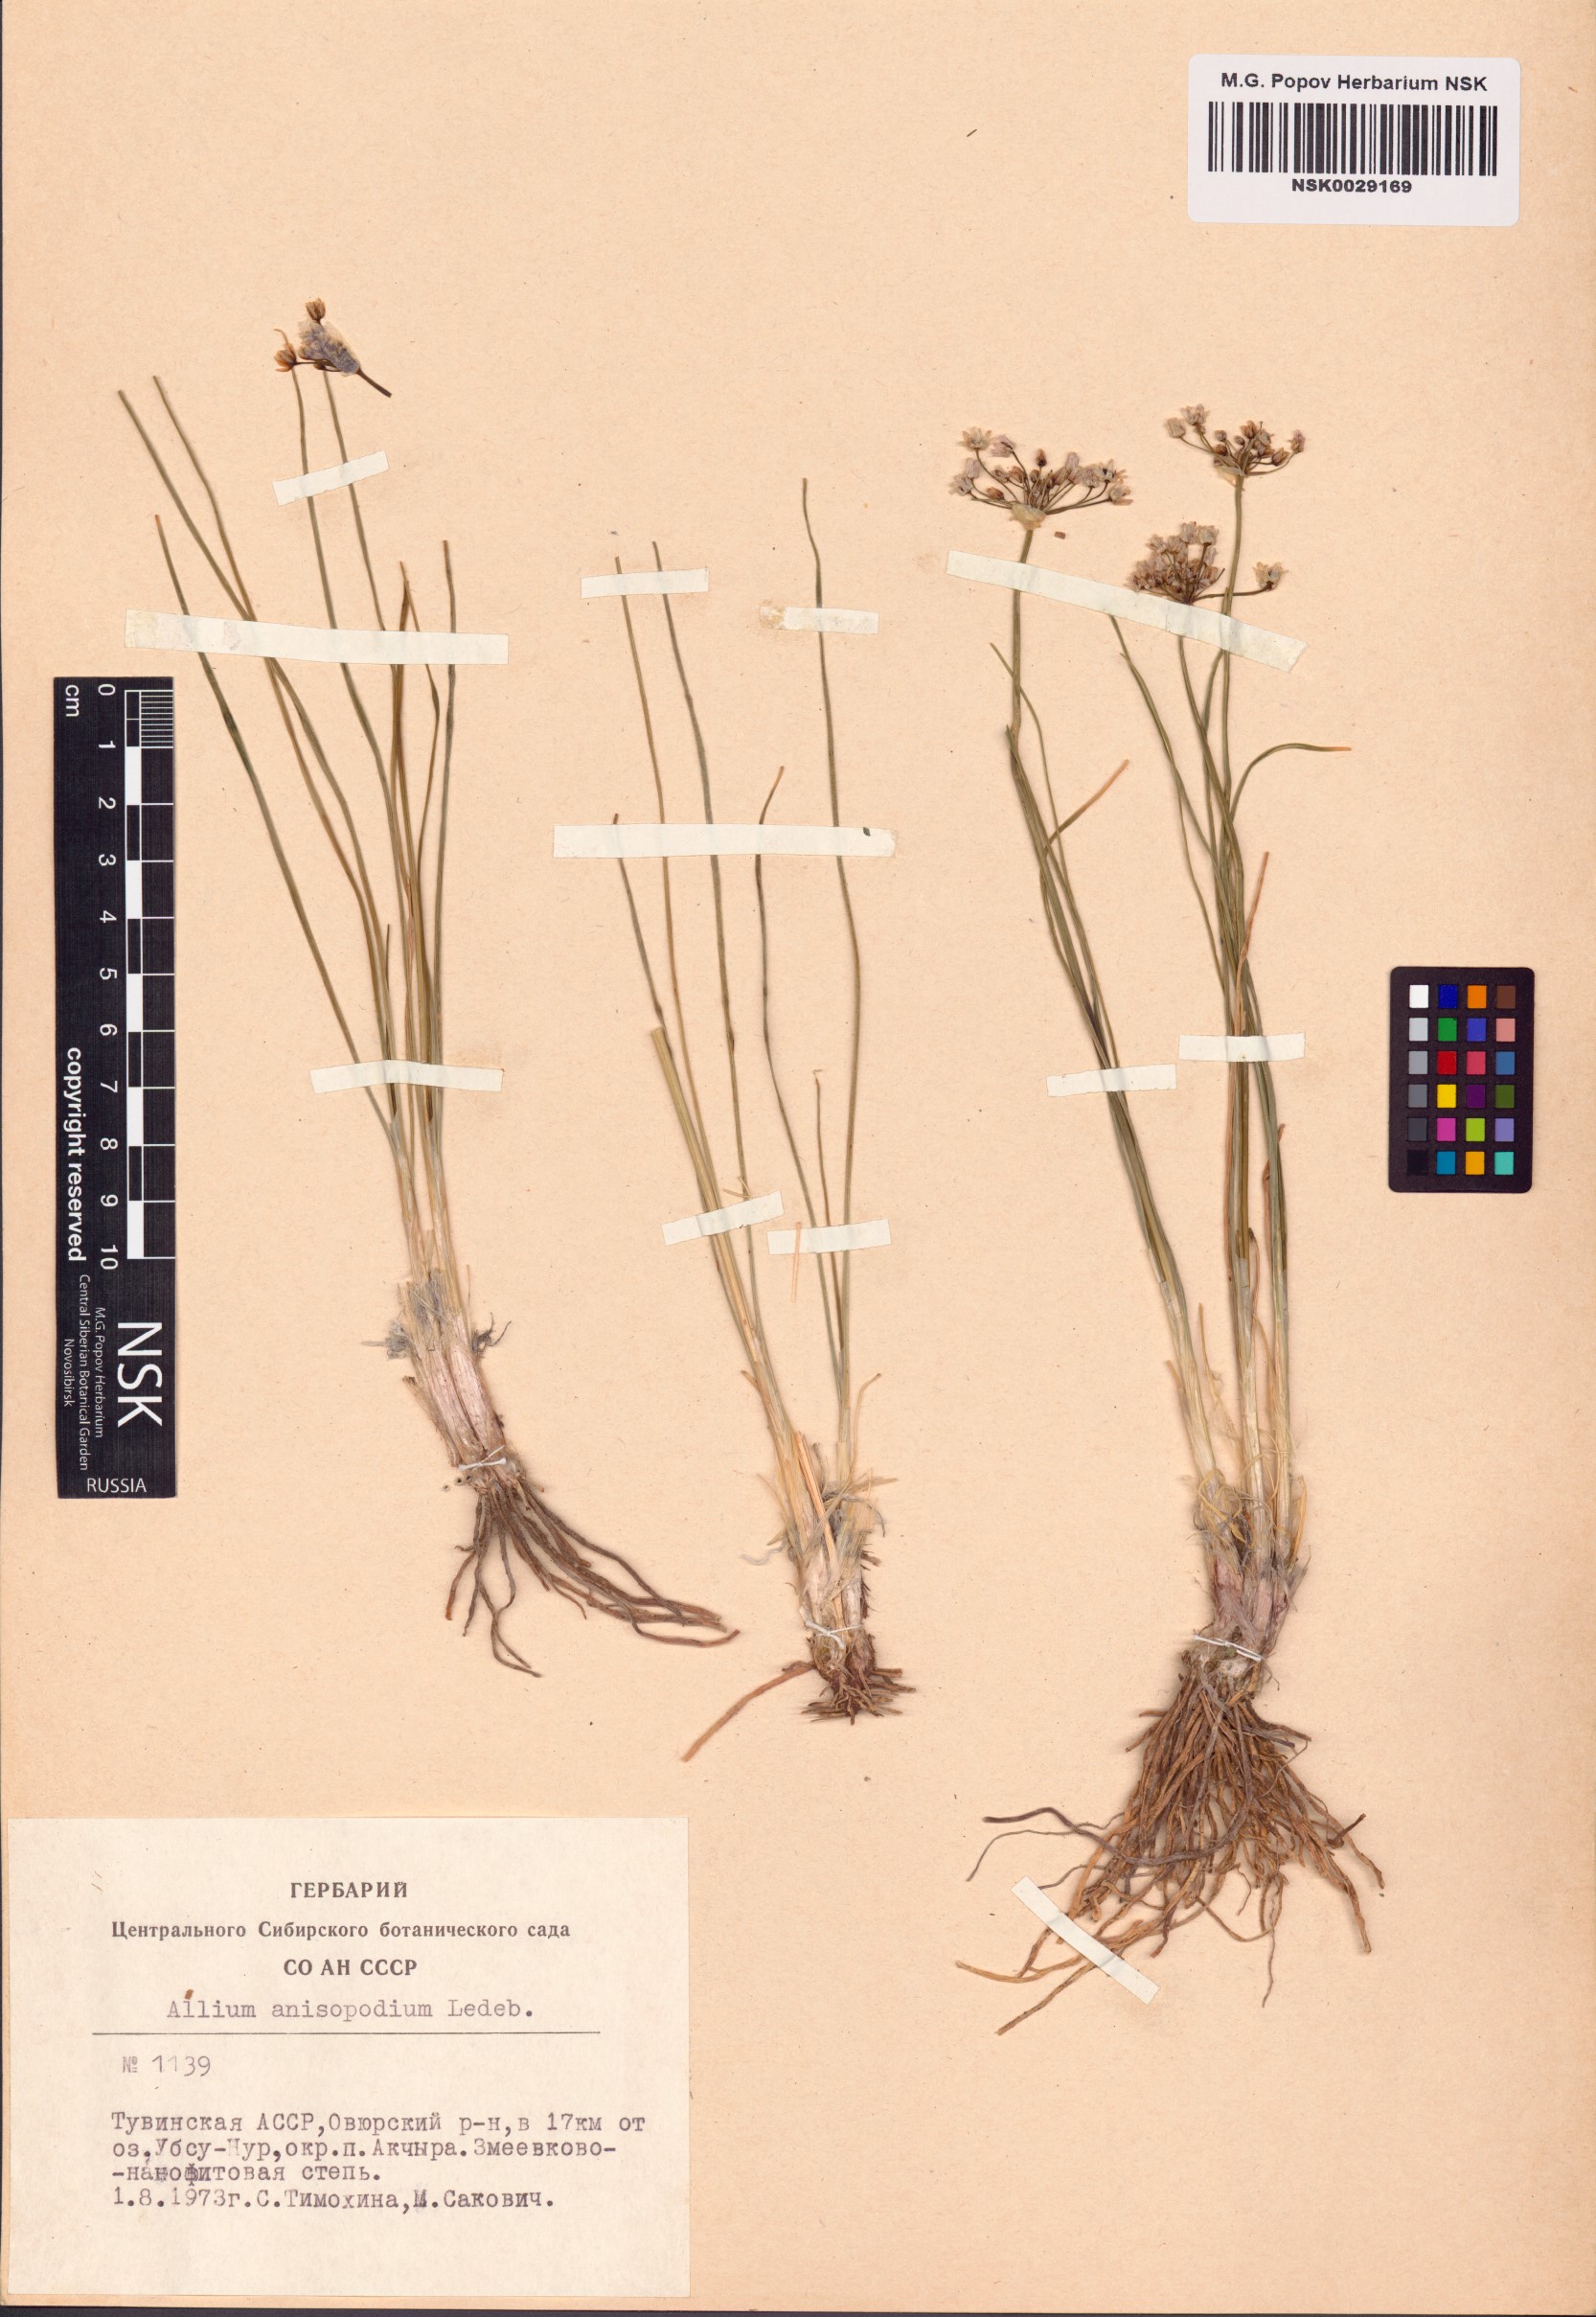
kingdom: Plantae
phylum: Tracheophyta
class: Liliopsida
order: Asparagales
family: Amaryllidaceae
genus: Allium
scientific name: Allium anisopodium
